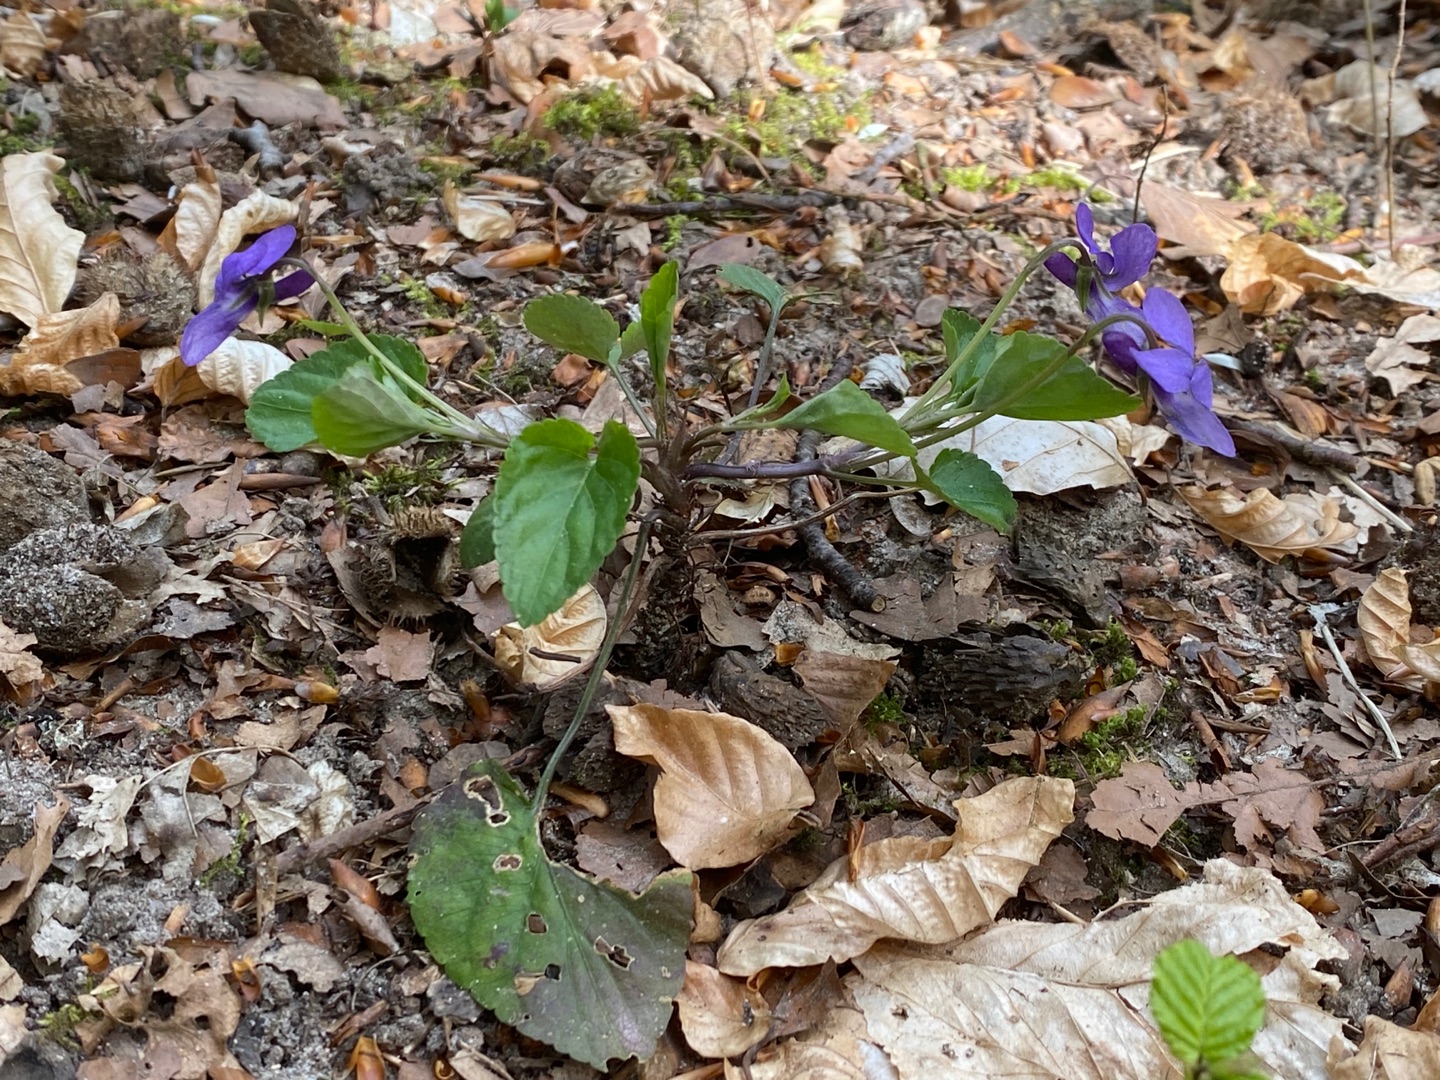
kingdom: Plantae
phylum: Tracheophyta
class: Magnoliopsida
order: Malpighiales
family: Violaceae
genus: Viola
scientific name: Viola reichenbachiana
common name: Skov-viol
